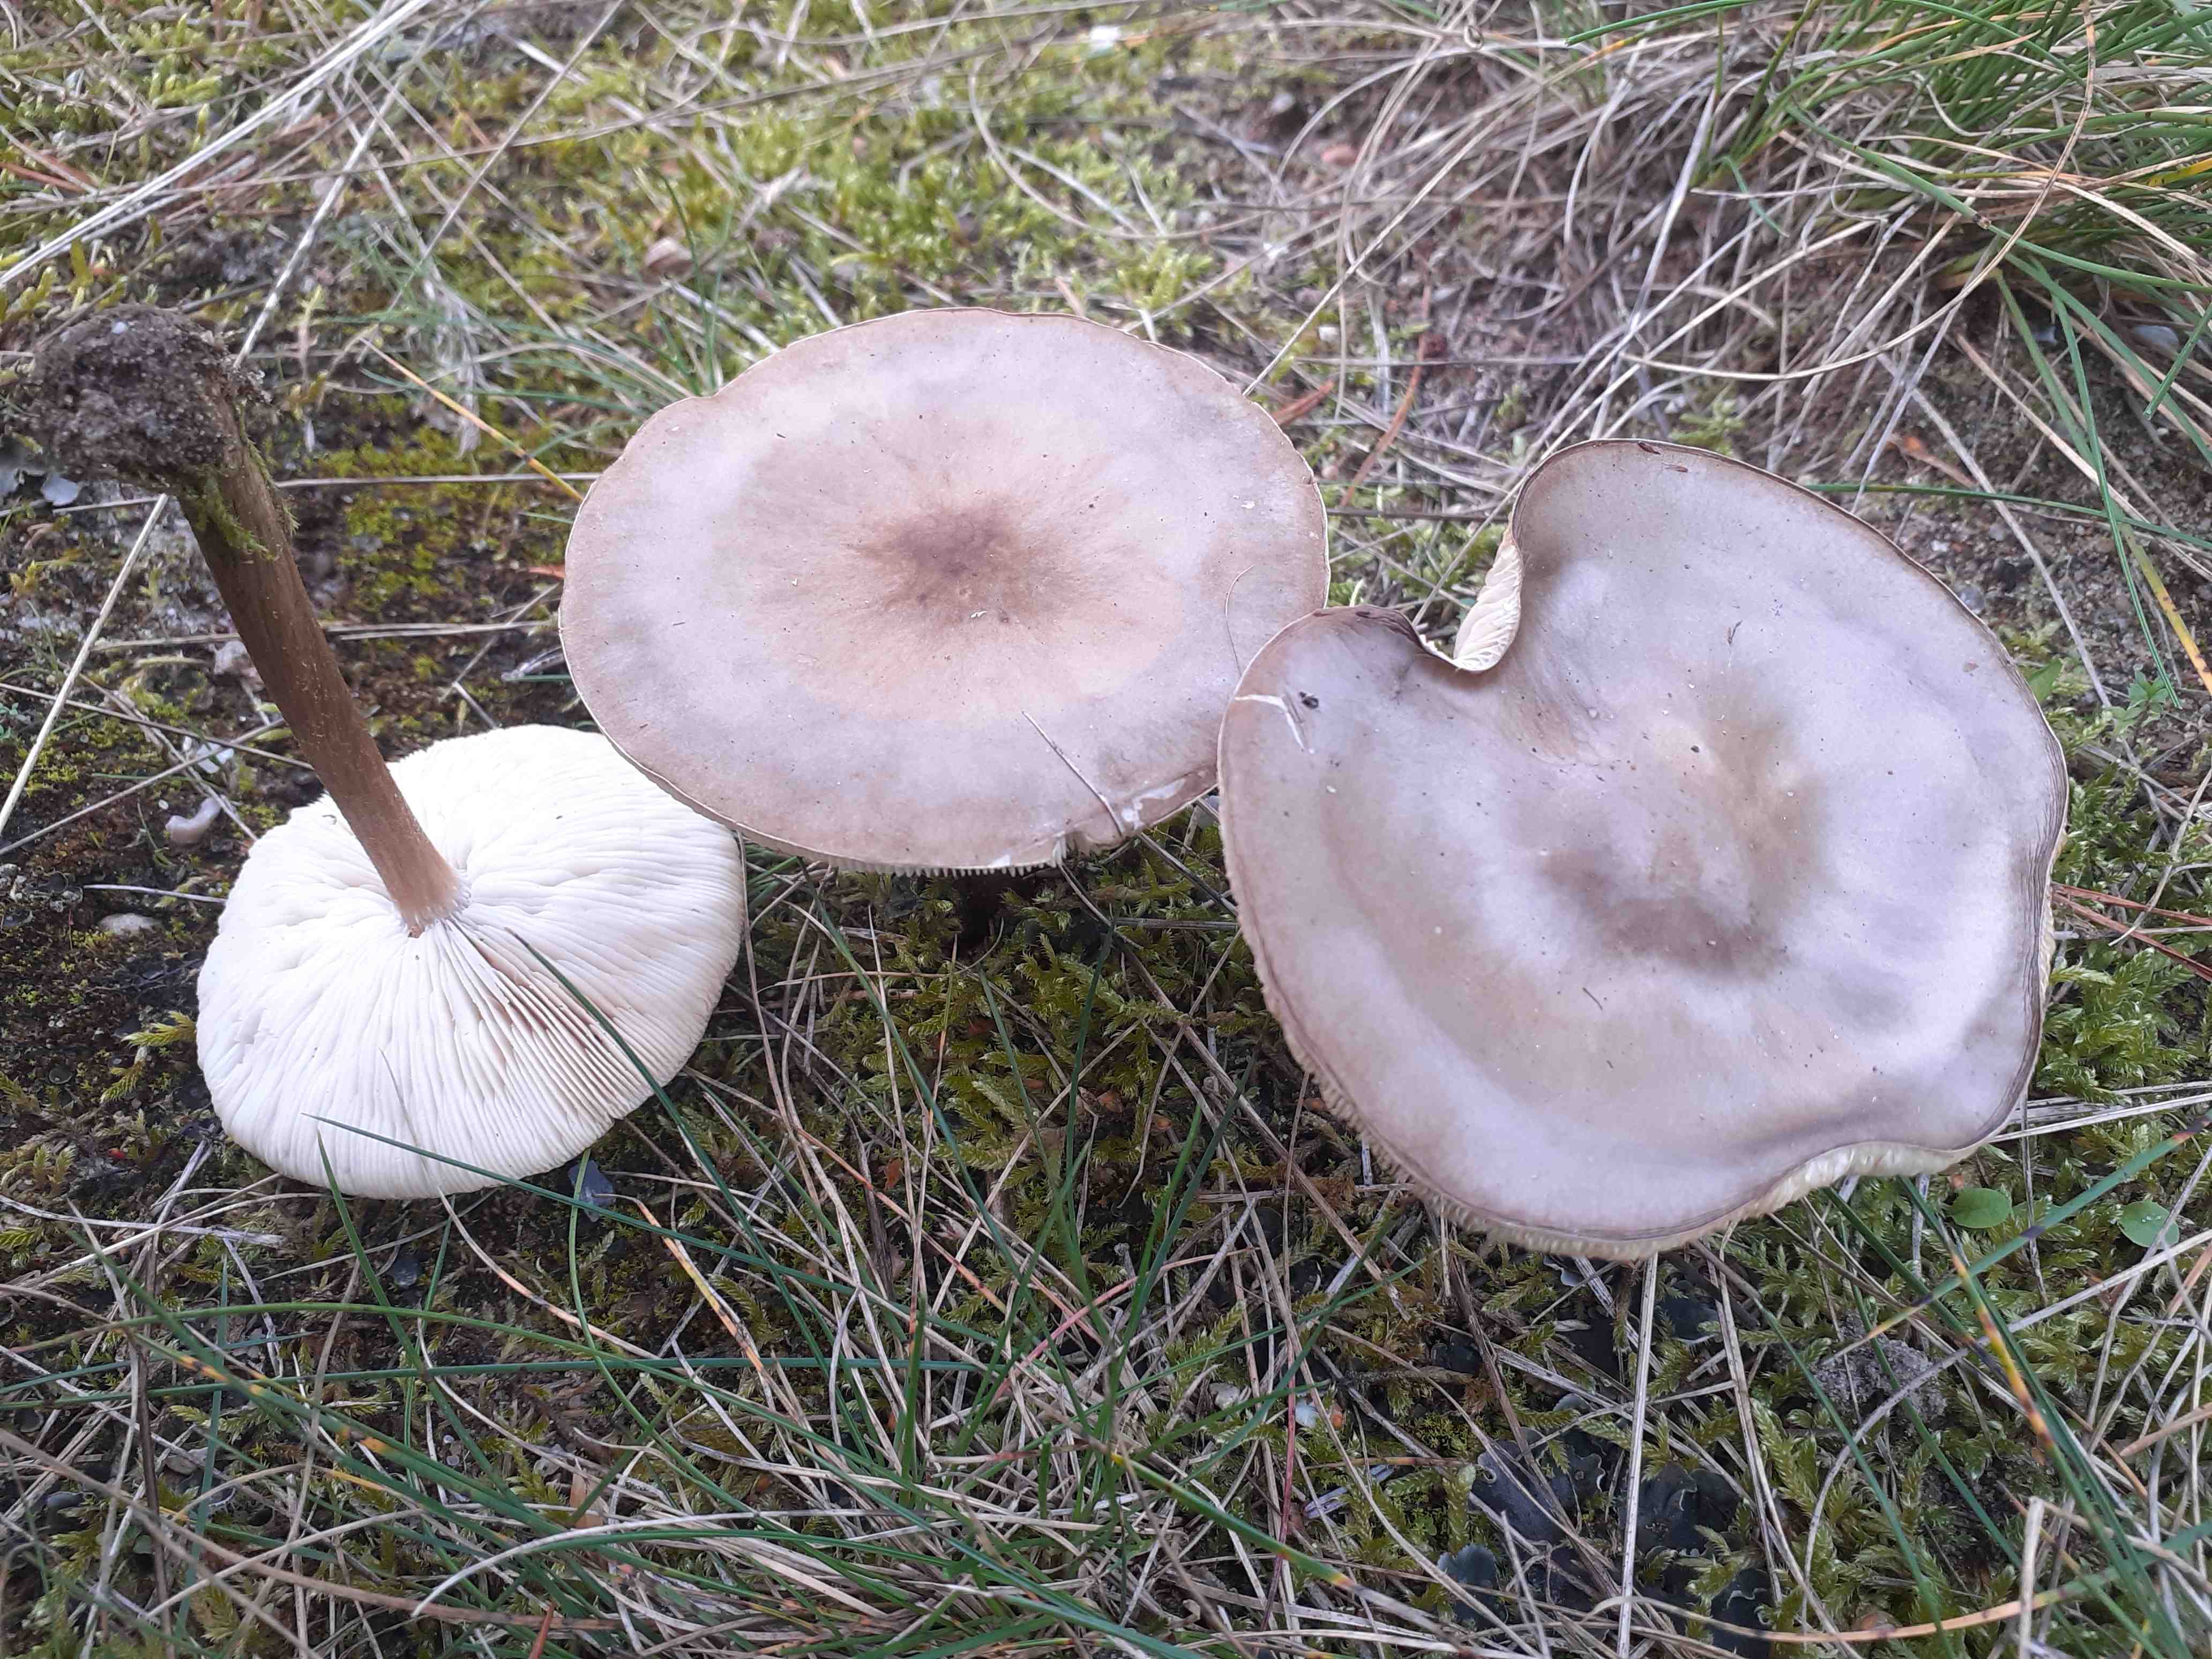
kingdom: Fungi
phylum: Basidiomycota
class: Agaricomycetes
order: Agaricales
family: Tricholomataceae
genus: Melanoleuca
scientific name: Melanoleuca
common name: munkehat
